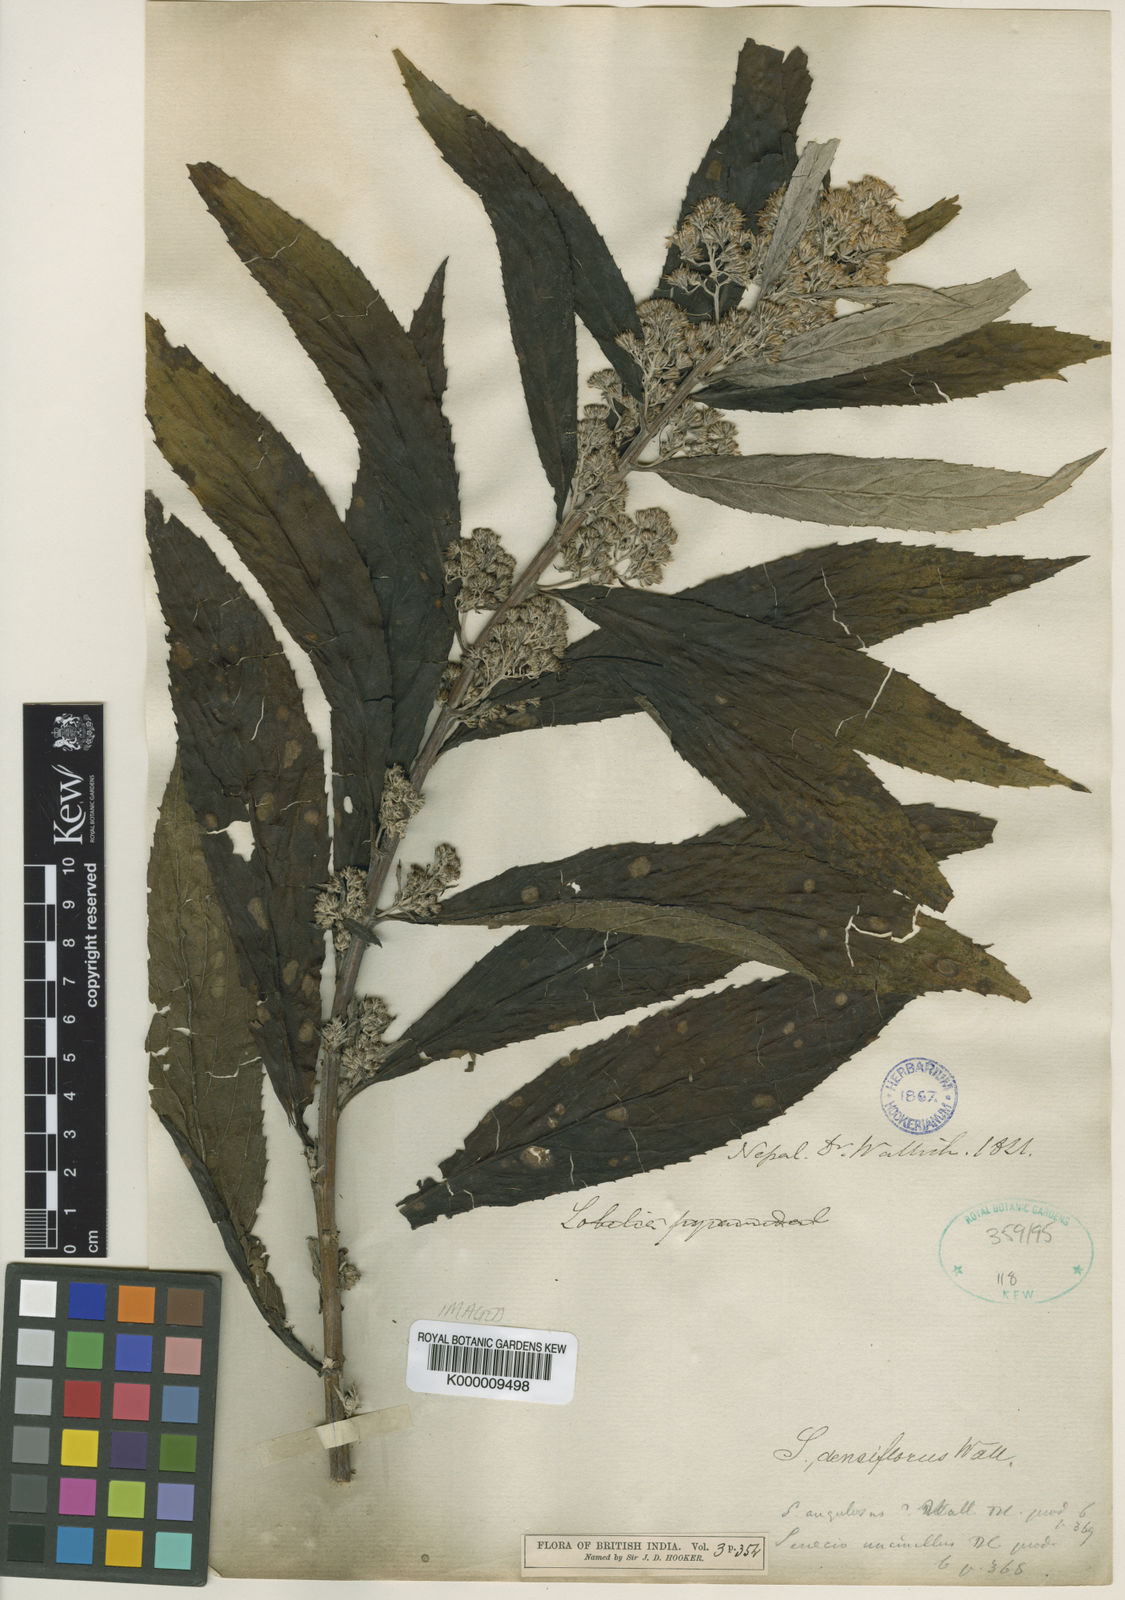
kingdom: Plantae
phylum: Tracheophyta
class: Magnoliopsida
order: Asterales
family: Asteraceae
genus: Synotis
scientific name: Synotis cappa
